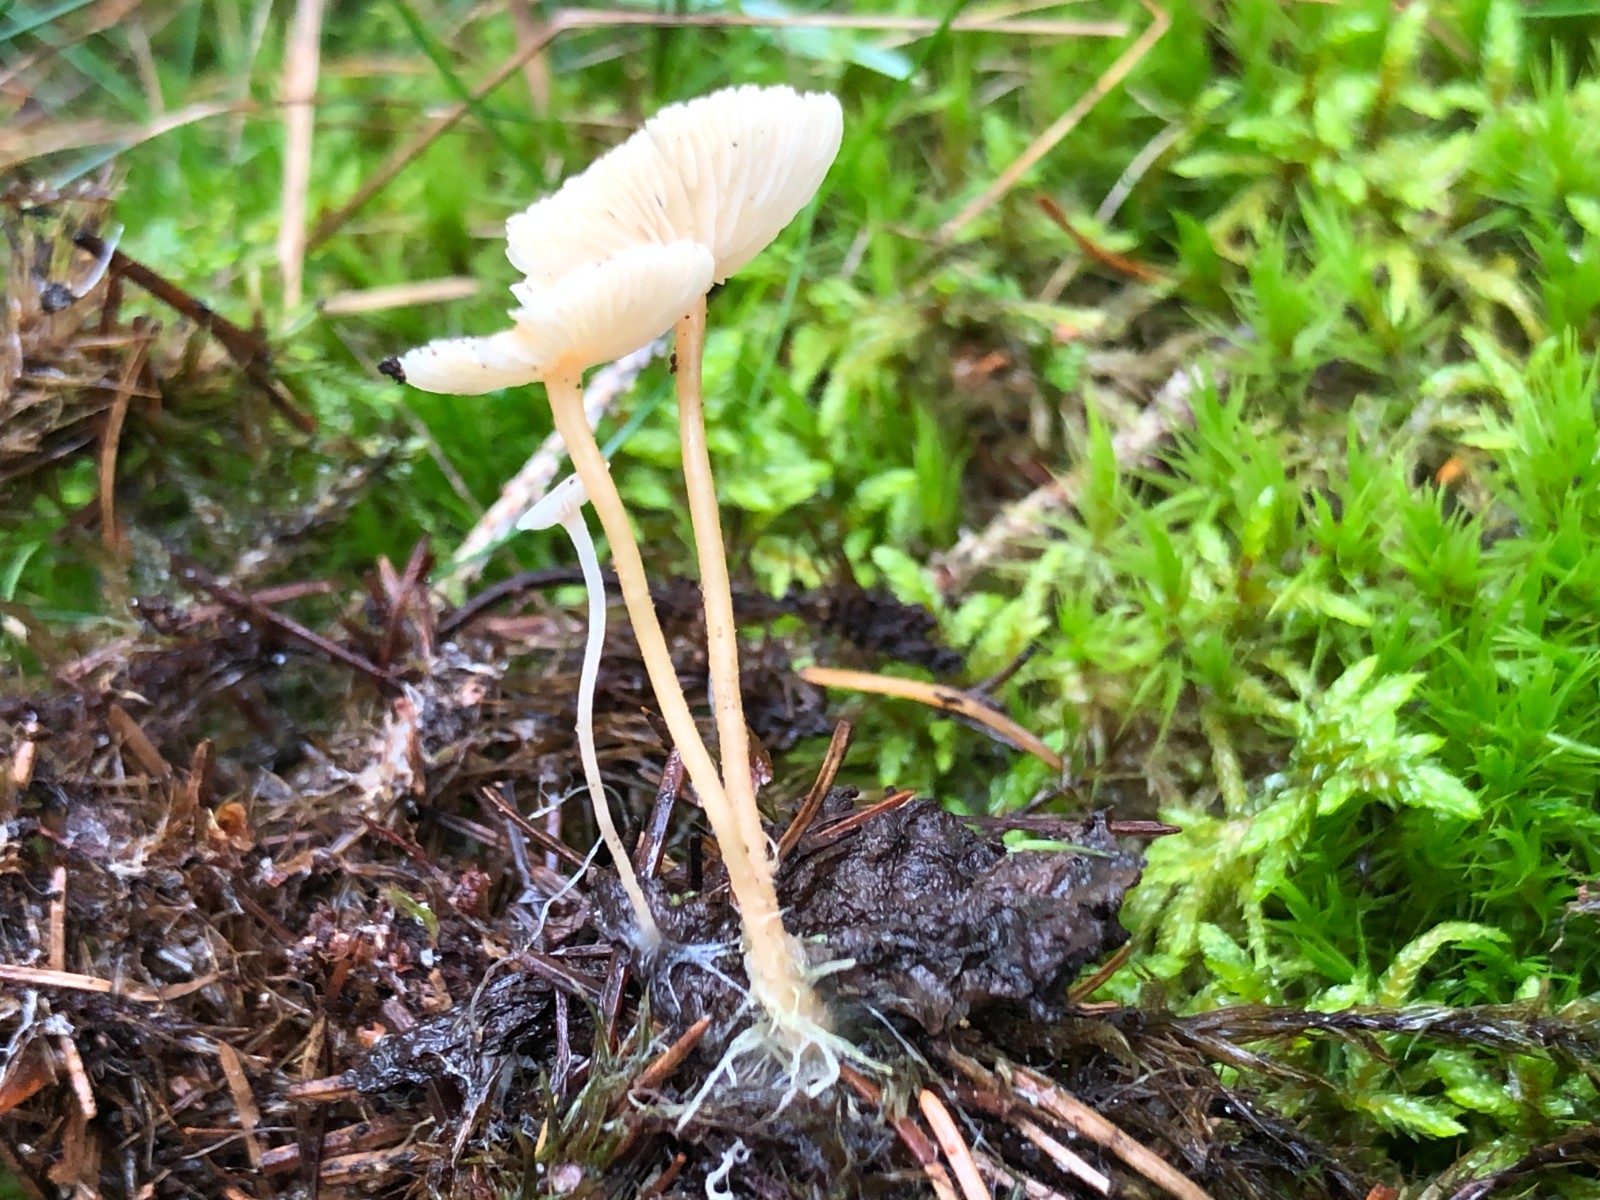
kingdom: Fungi
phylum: Basidiomycota
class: Agaricomycetes
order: Agaricales
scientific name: Agaricales
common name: champignonordenen
